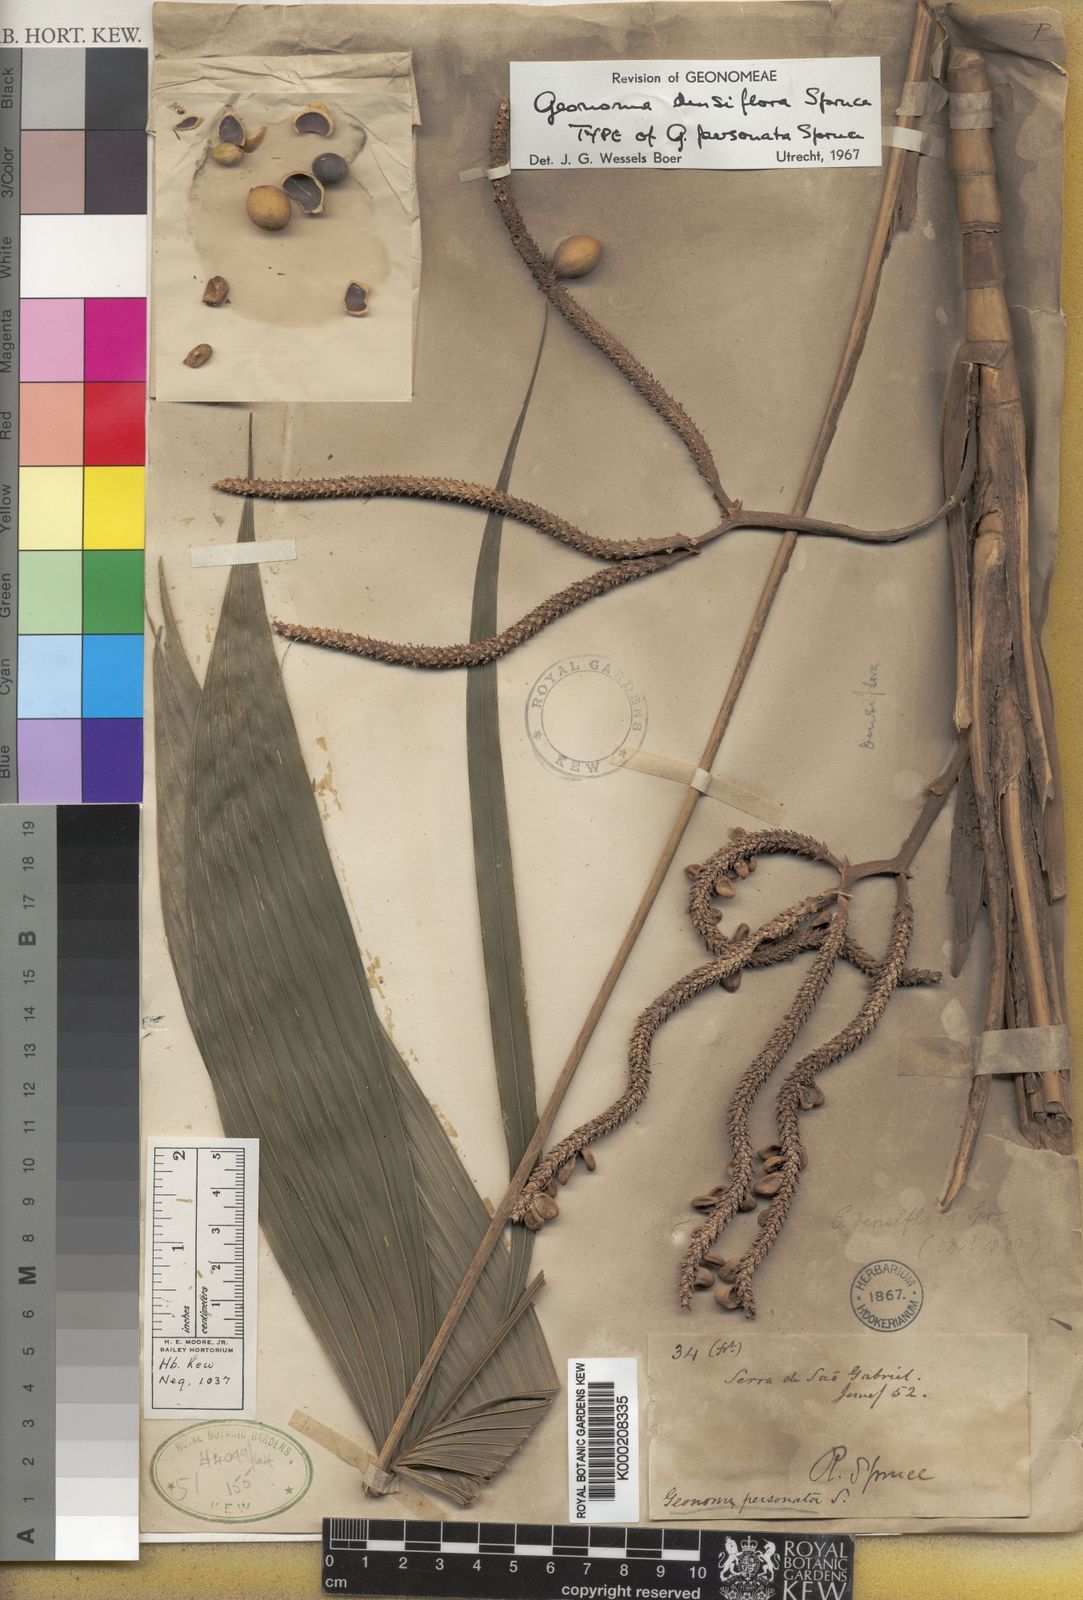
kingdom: Plantae
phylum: Tracheophyta
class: Liliopsida
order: Arecales
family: Arecaceae
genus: Geonoma
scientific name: Geonoma maxima
